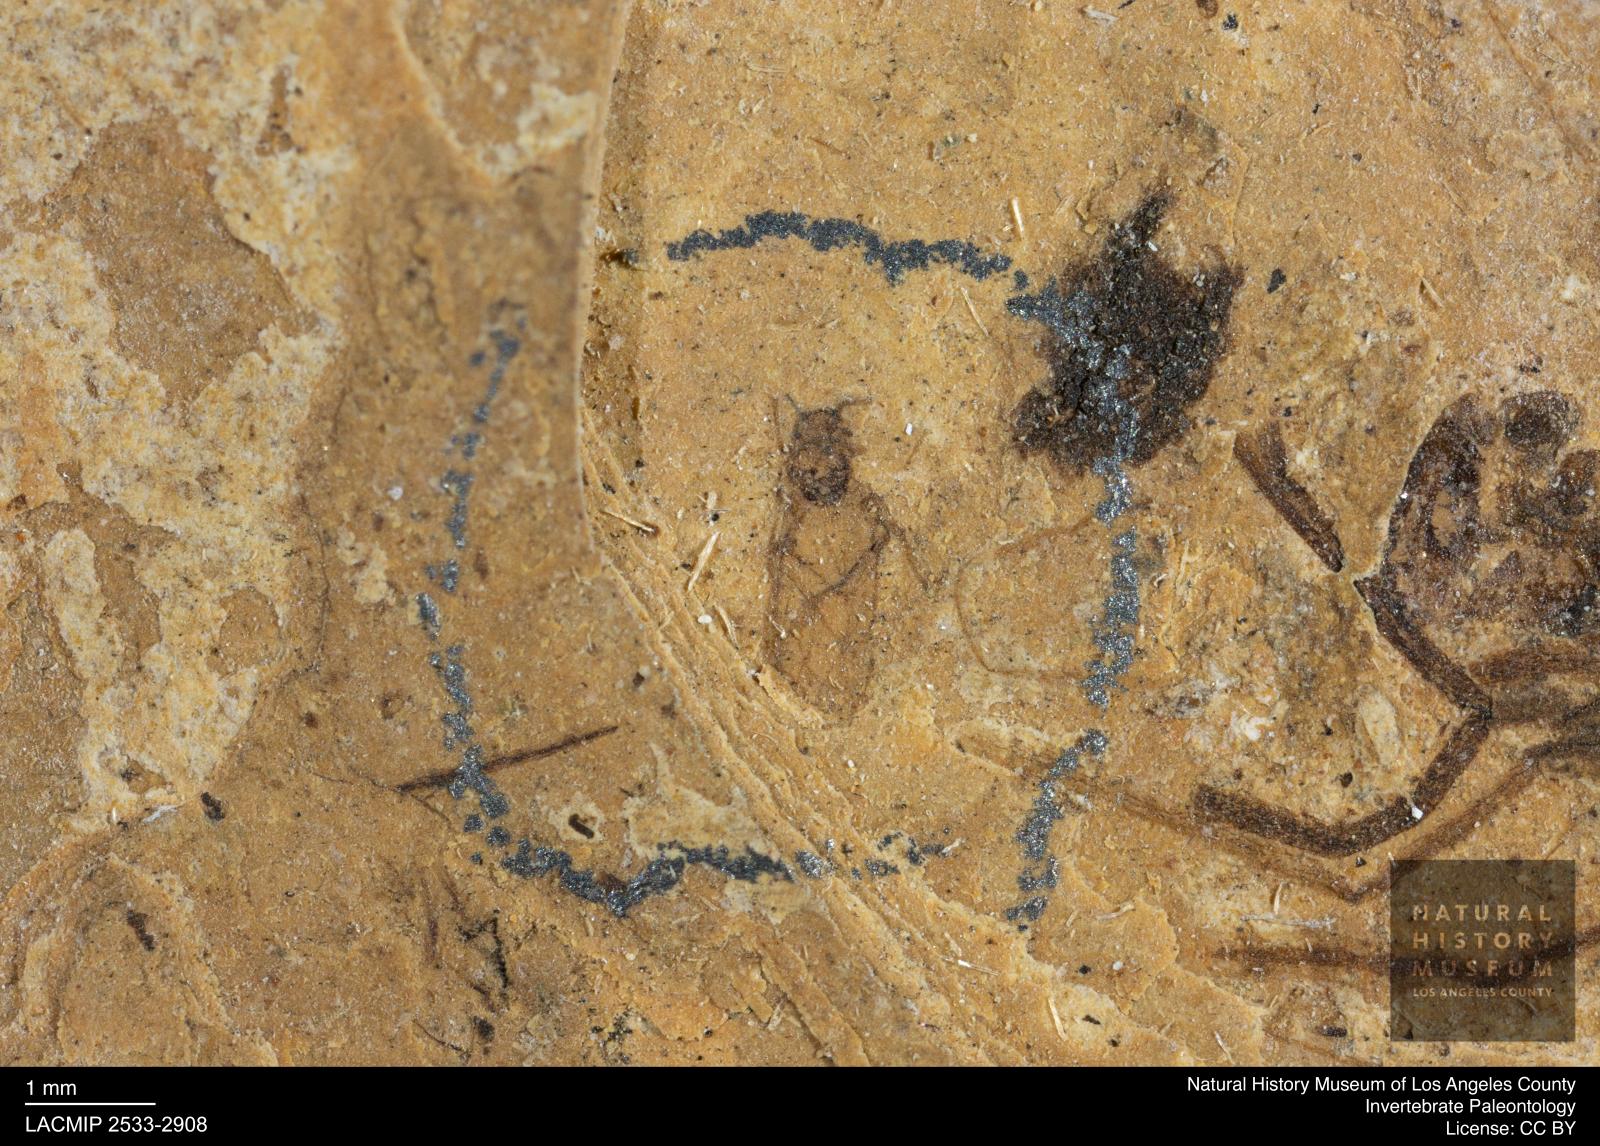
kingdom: Animalia
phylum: Arthropoda
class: Insecta
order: Hemiptera
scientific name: Hemiptera
